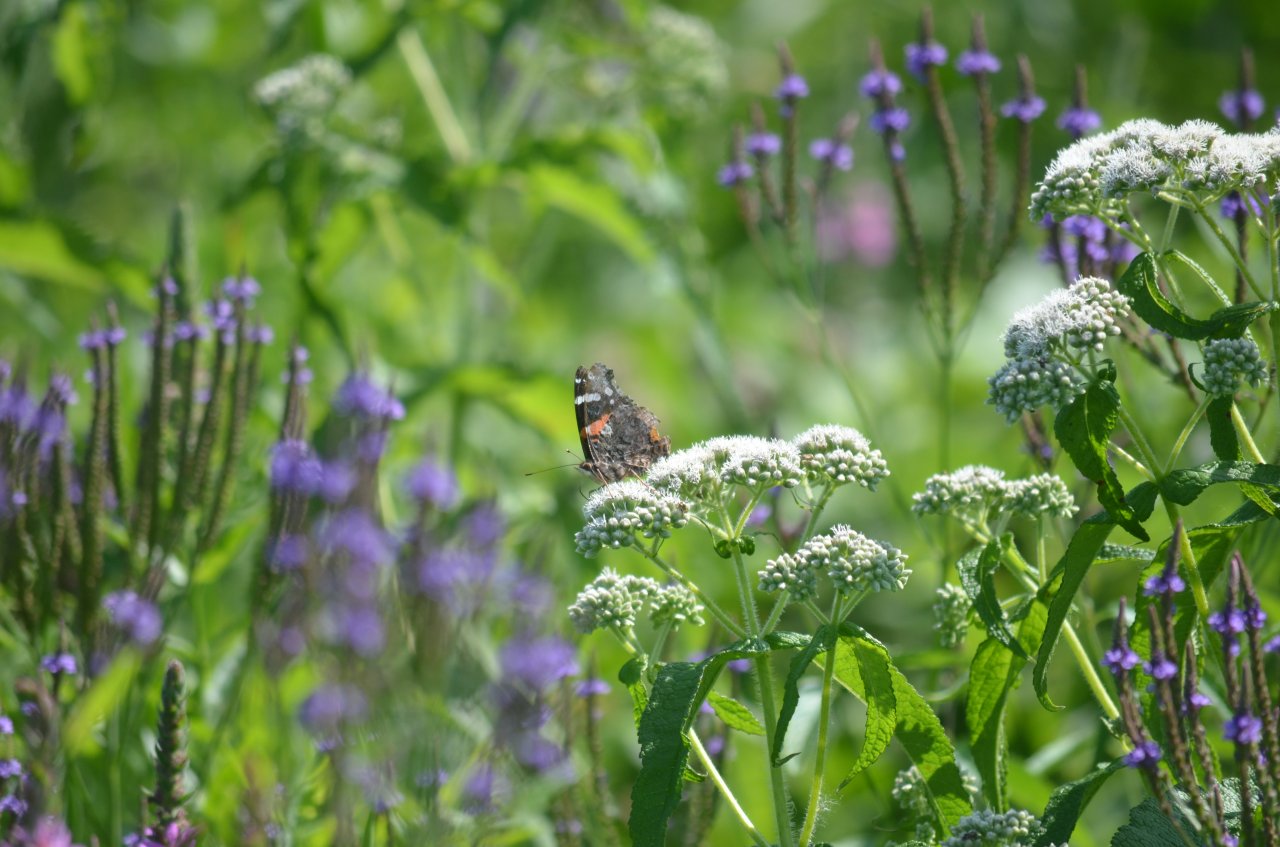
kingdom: Animalia
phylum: Arthropoda
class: Insecta
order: Lepidoptera
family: Nymphalidae
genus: Vanessa
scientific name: Vanessa atalanta
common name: Red Admiral
